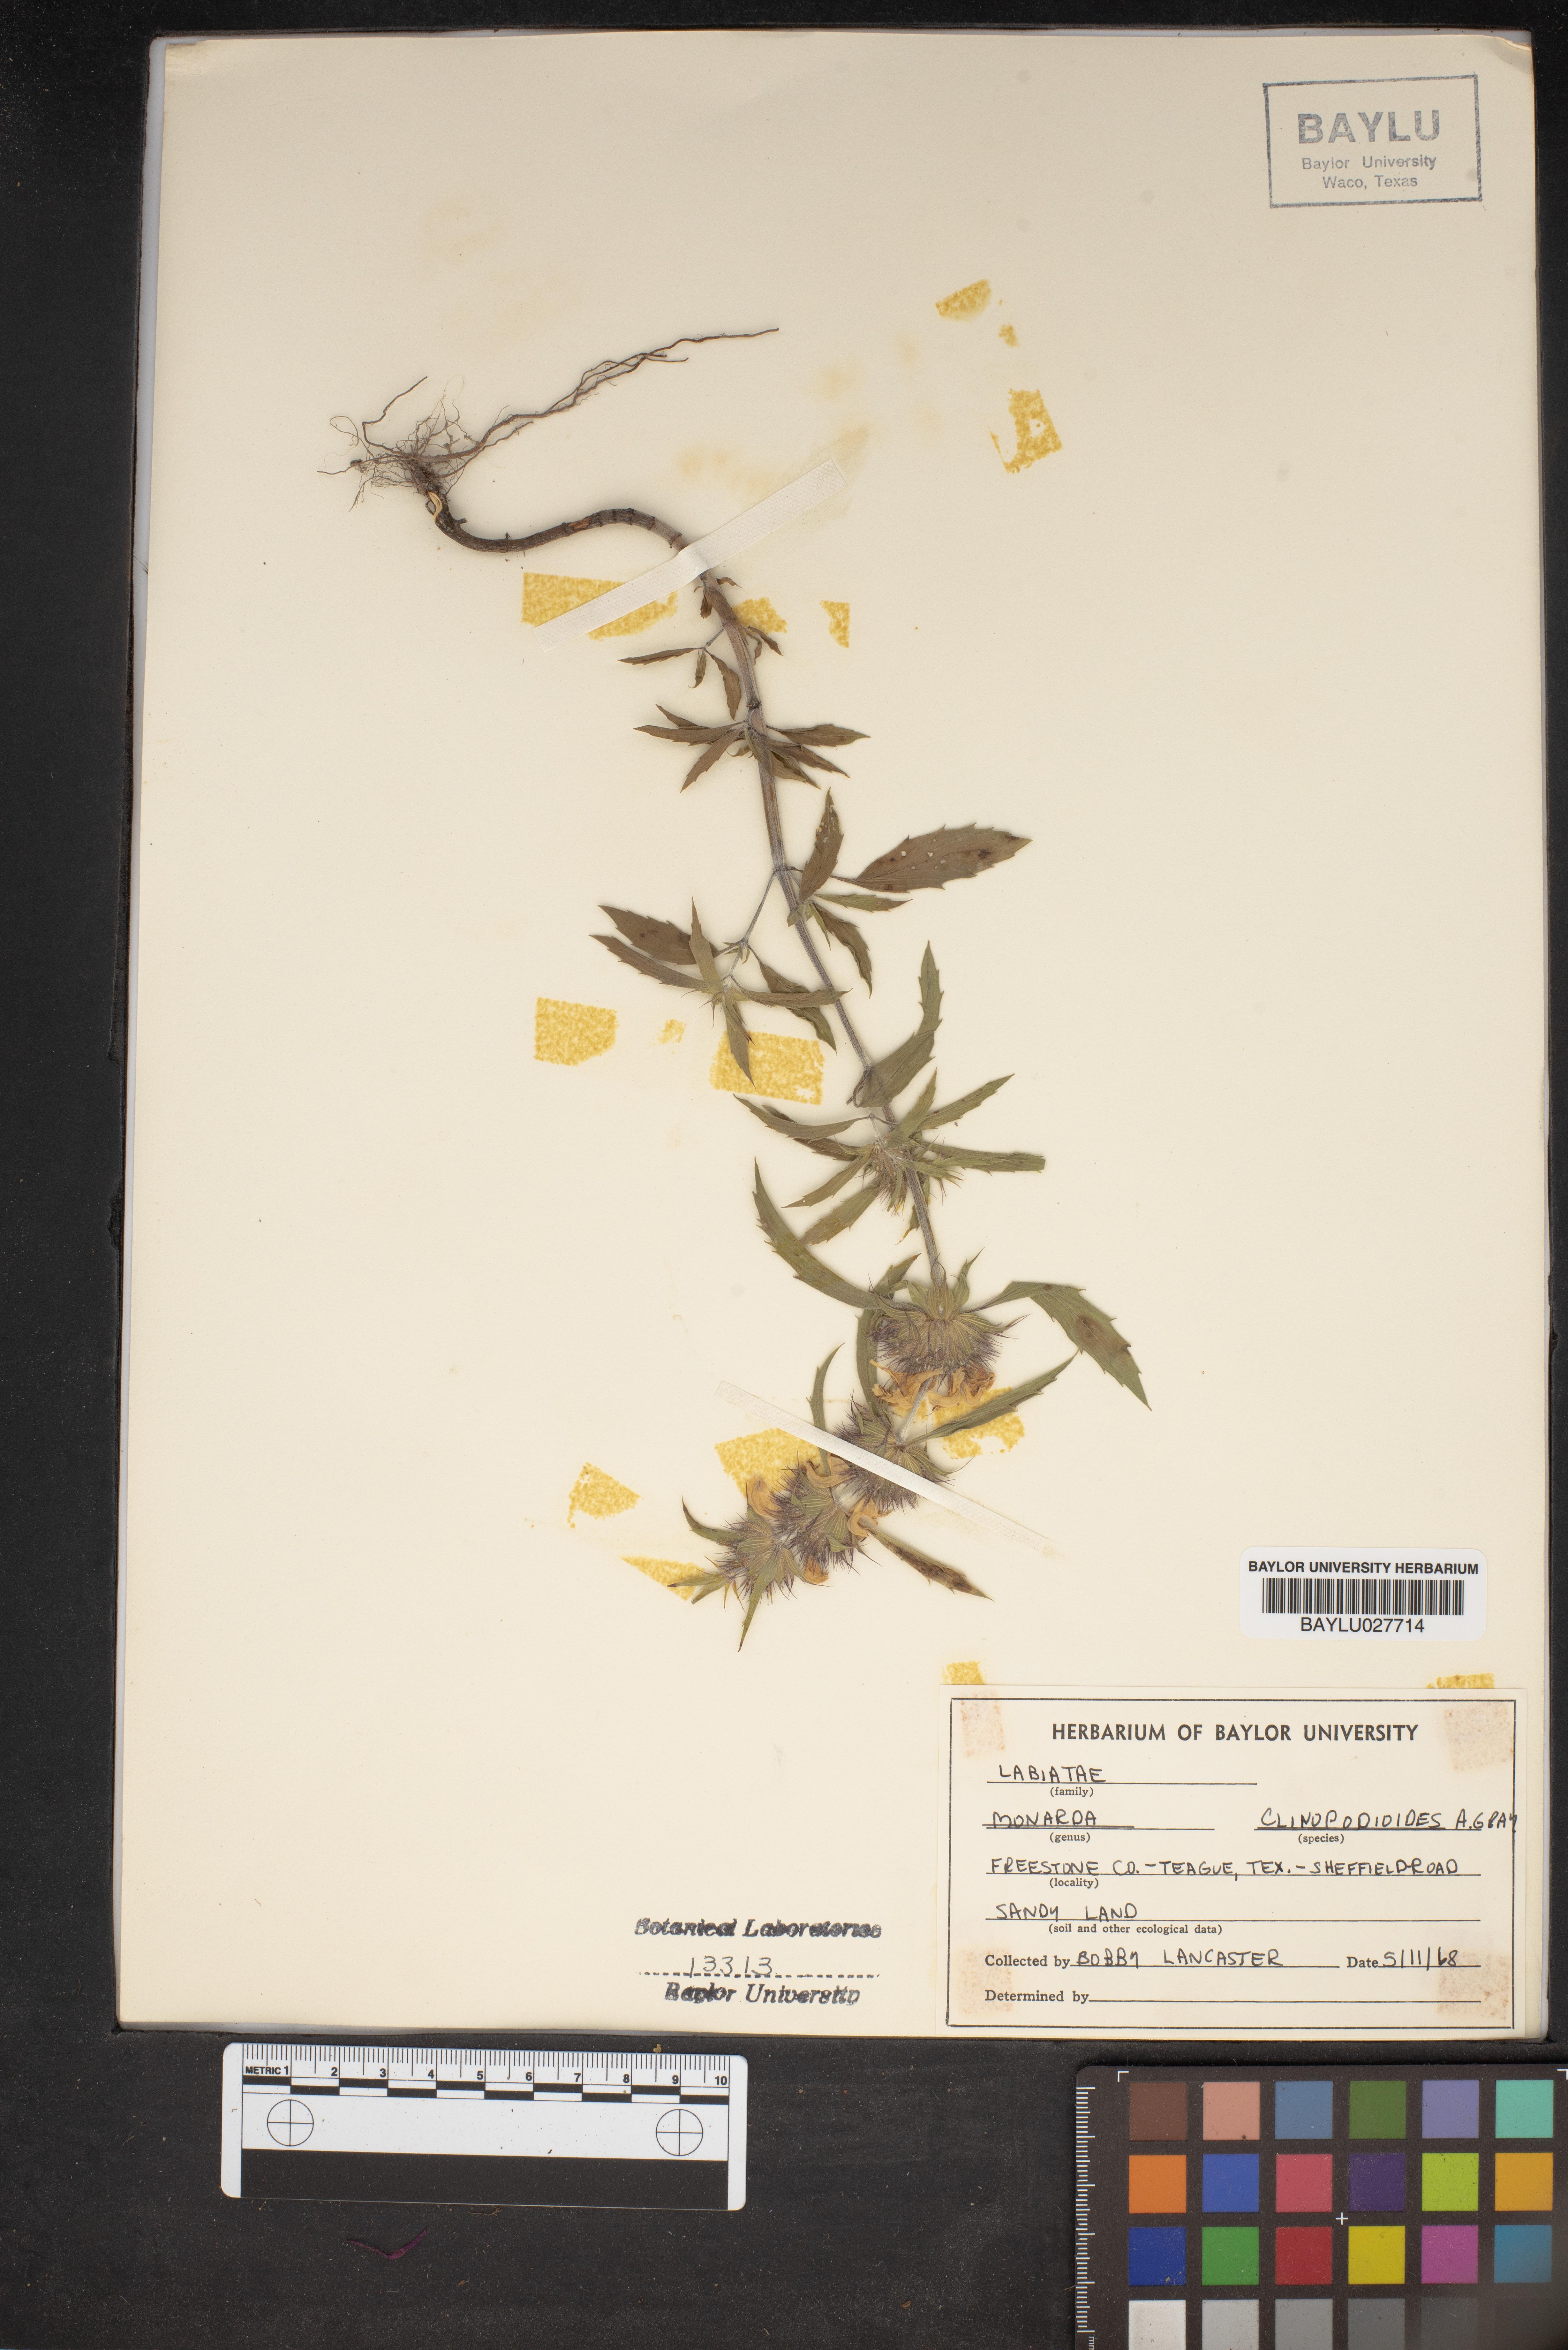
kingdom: Plantae
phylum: Tracheophyta
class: Magnoliopsida
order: Lamiales
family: Lamiaceae
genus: Monarda
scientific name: Monarda clinopodioides
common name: Basil beebalm
